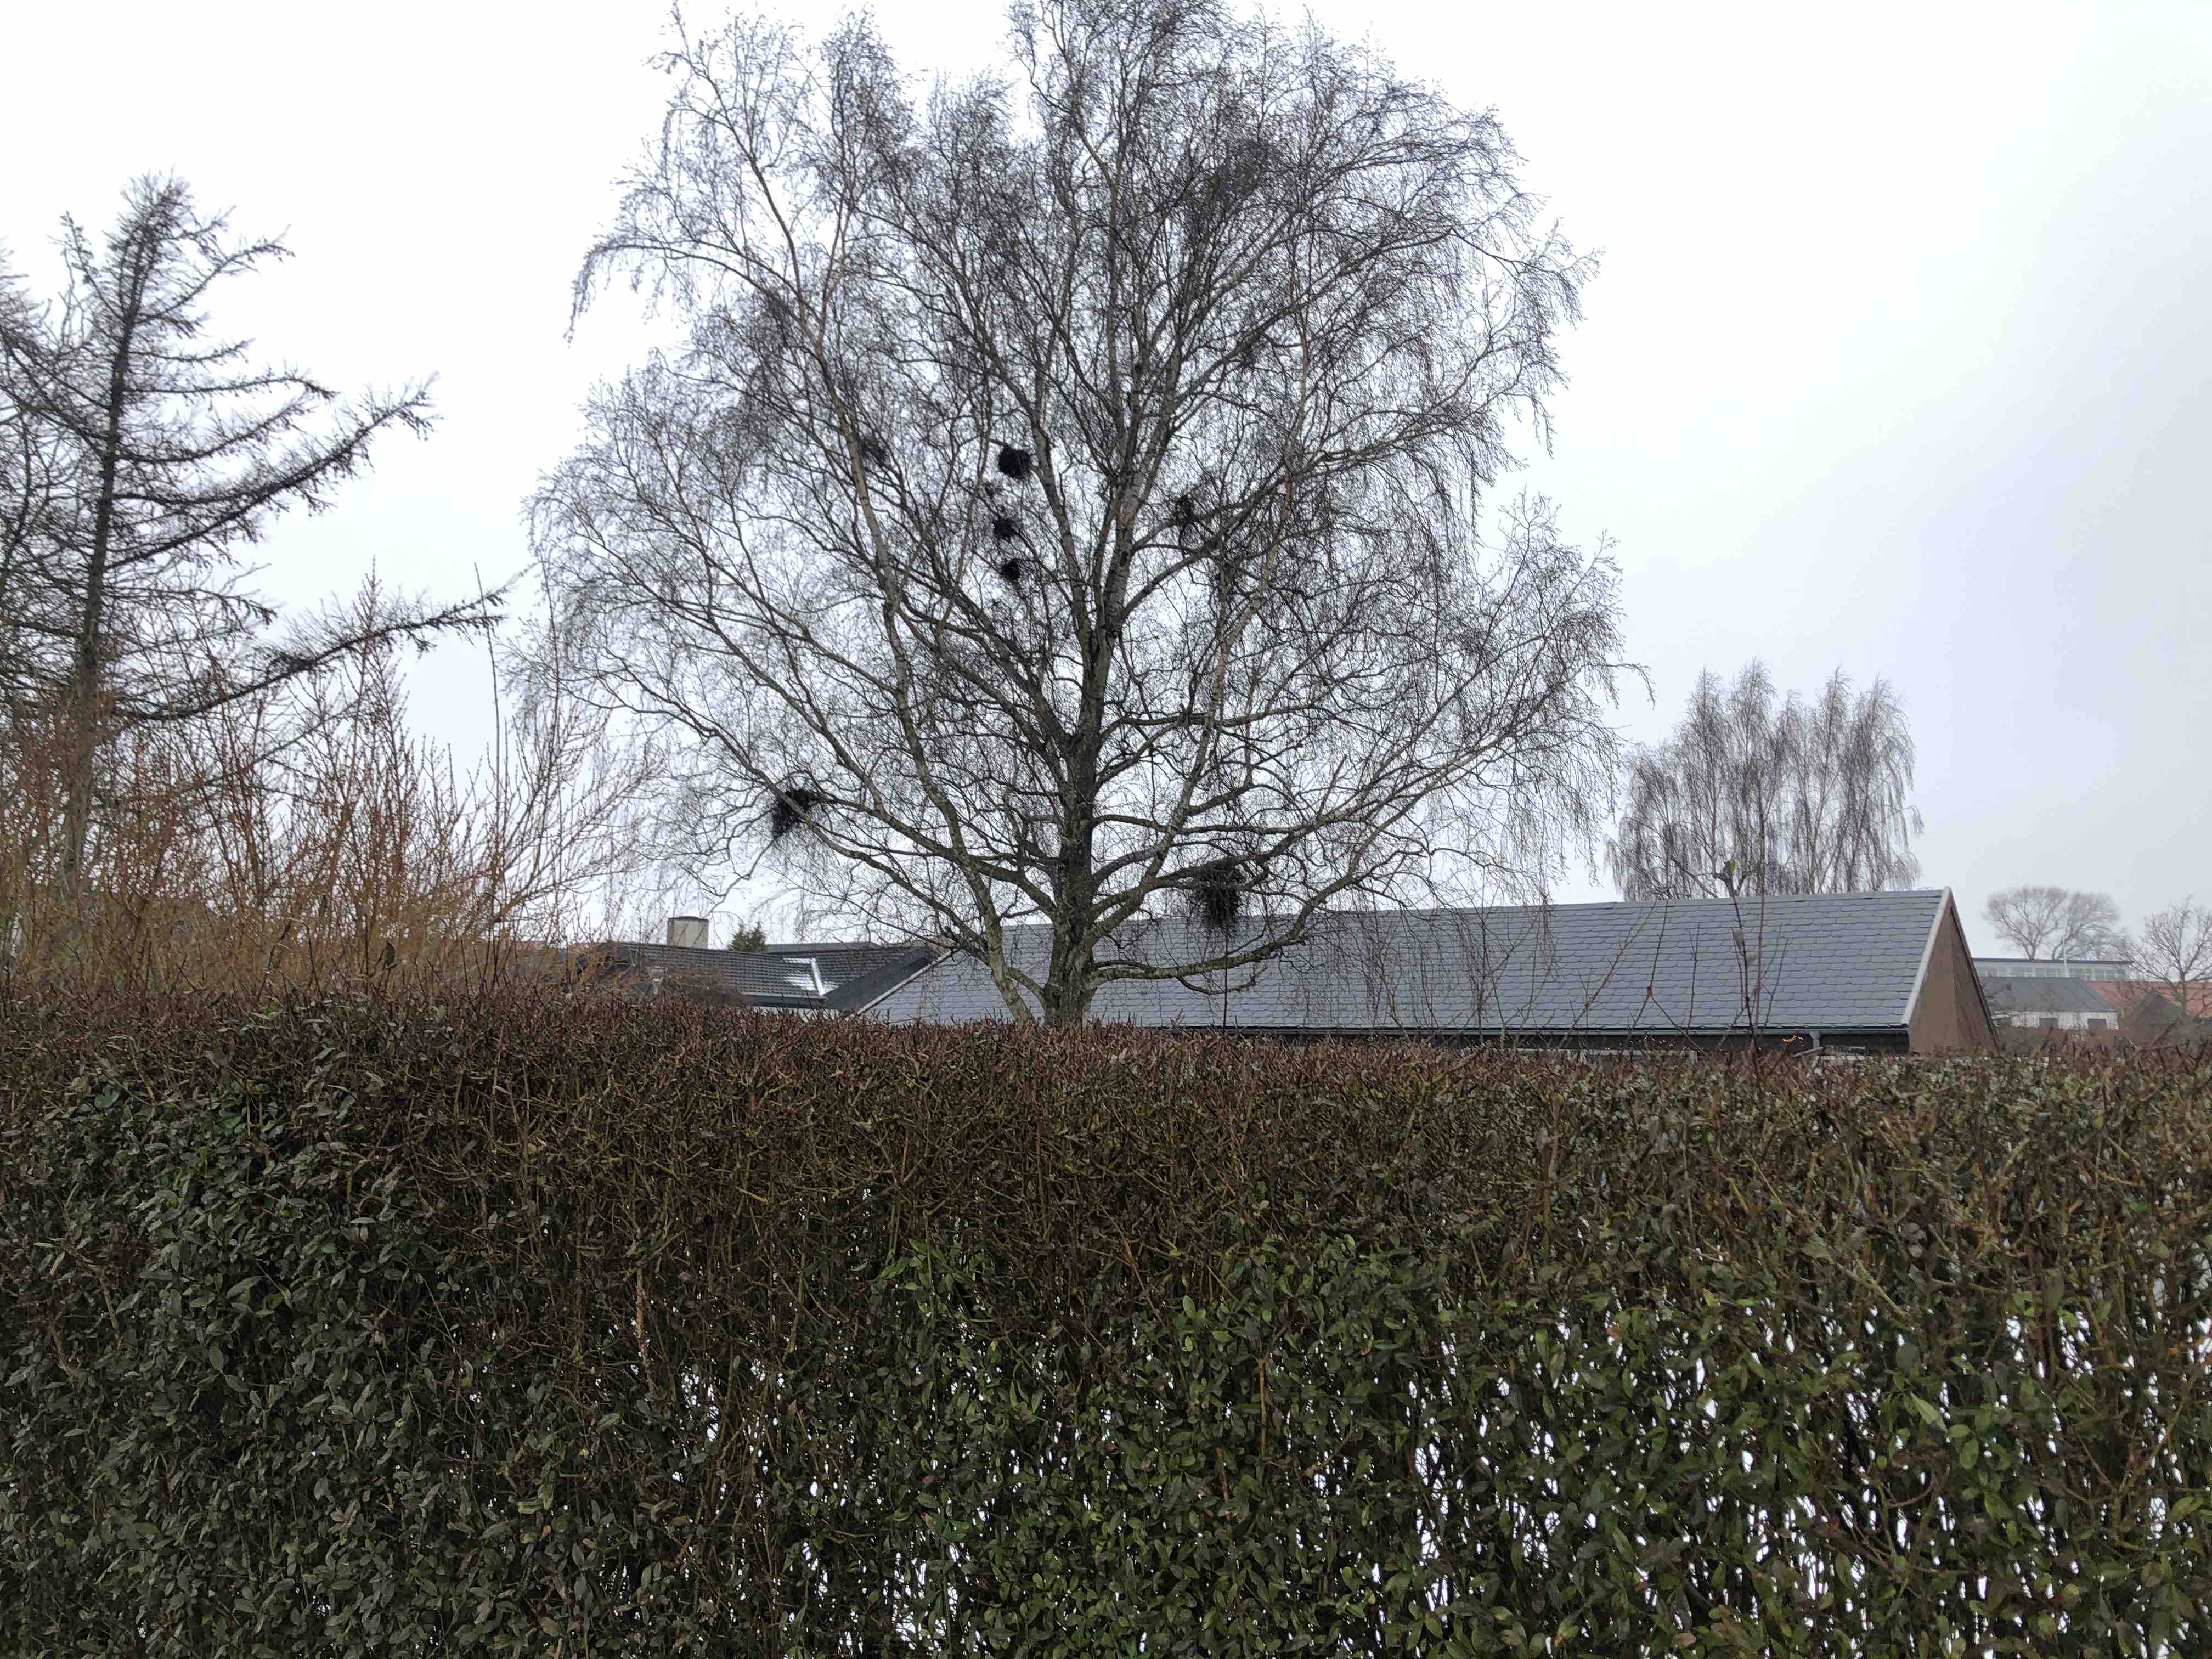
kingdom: Fungi
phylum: Ascomycota
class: Taphrinomycetes
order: Taphrinales
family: Taphrinaceae
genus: Taphrina
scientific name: Taphrina betulina
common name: hekse-sækdug
